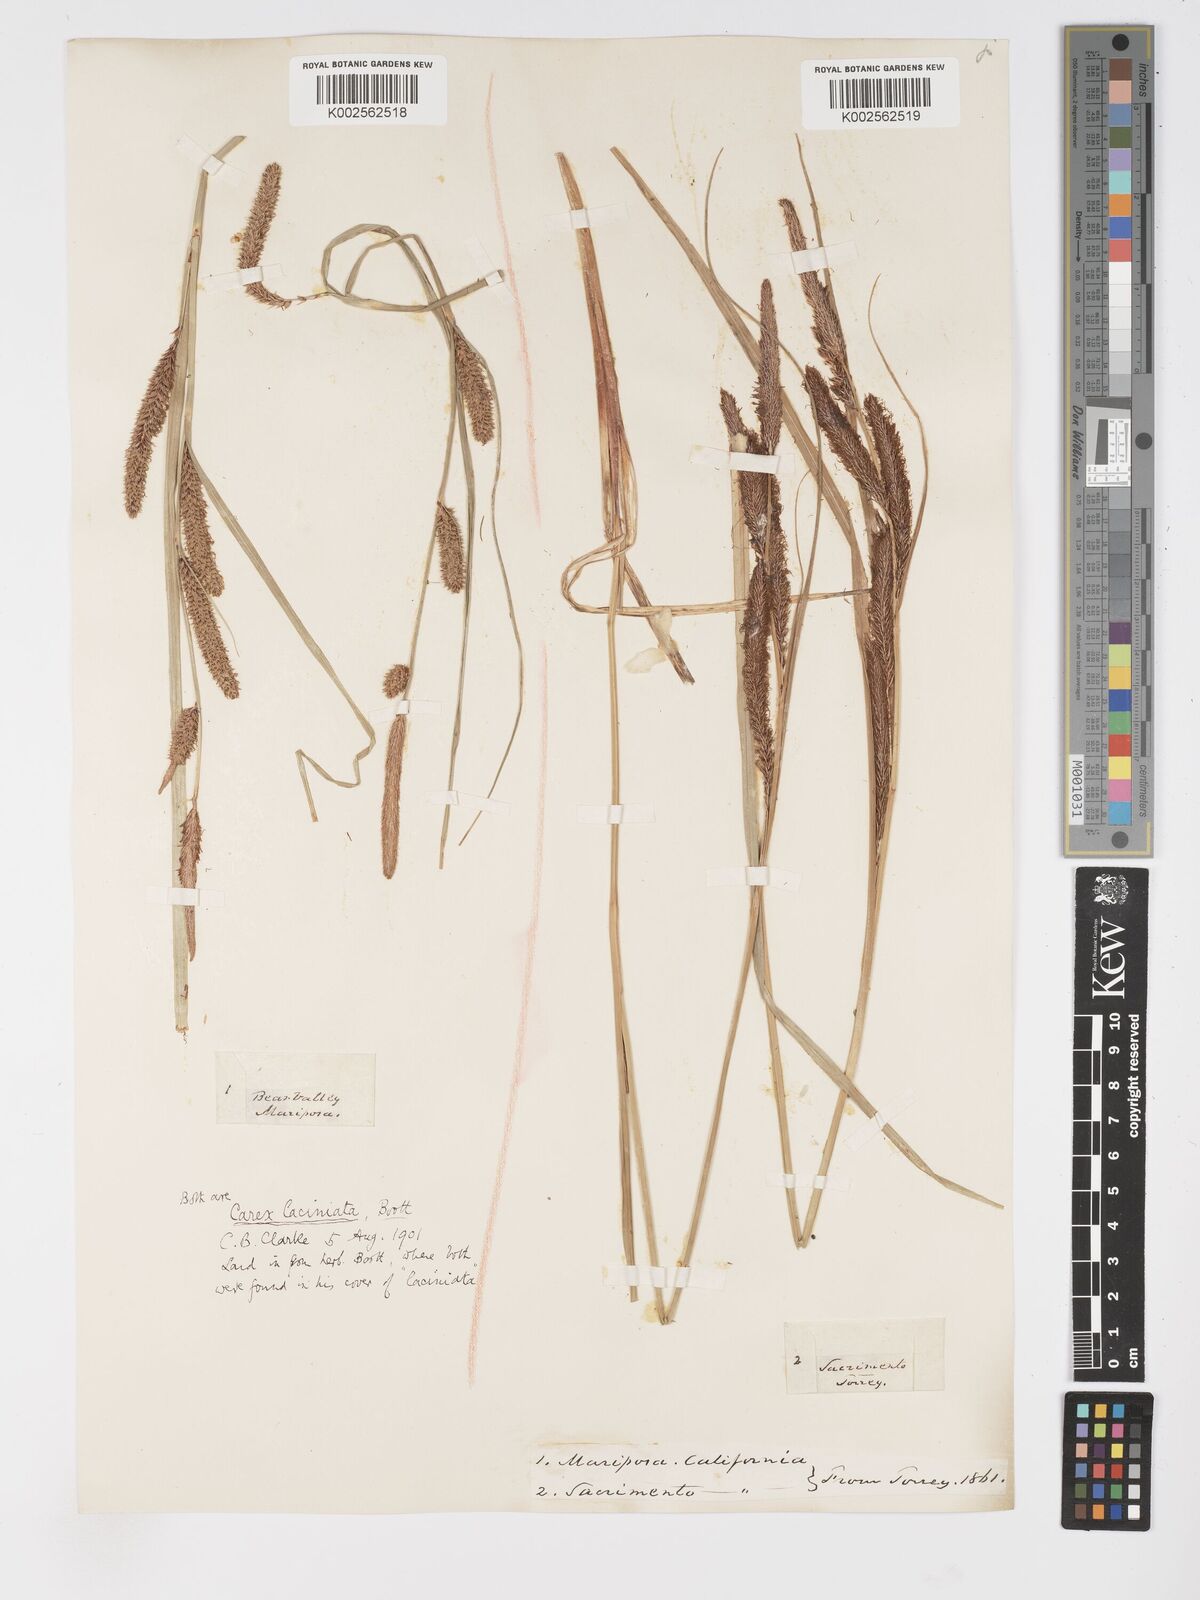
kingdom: Plantae
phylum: Tracheophyta
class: Liliopsida
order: Poales
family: Cyperaceae
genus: Carex
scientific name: Carex barbarae
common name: Santa barbara sedge
